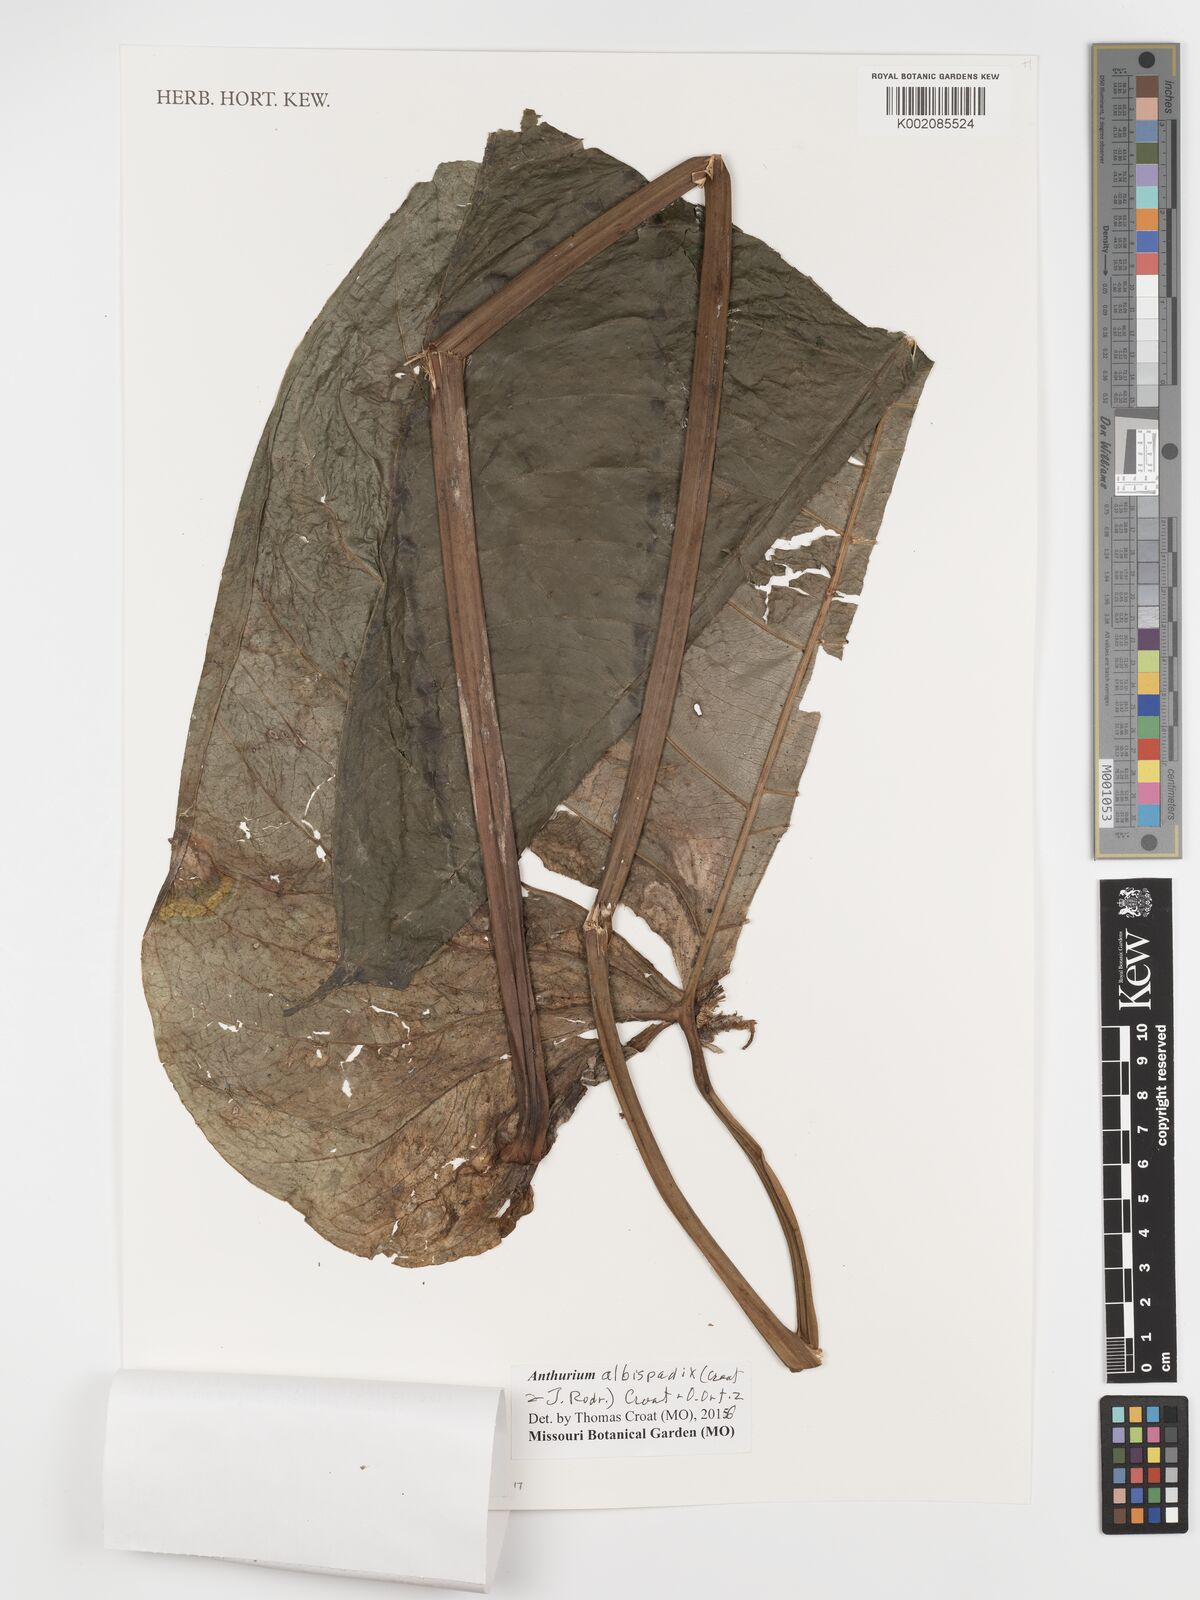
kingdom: Plantae
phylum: Tracheophyta
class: Liliopsida
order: Alismatales
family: Araceae
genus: Anthurium
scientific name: Anthurium albispadix
